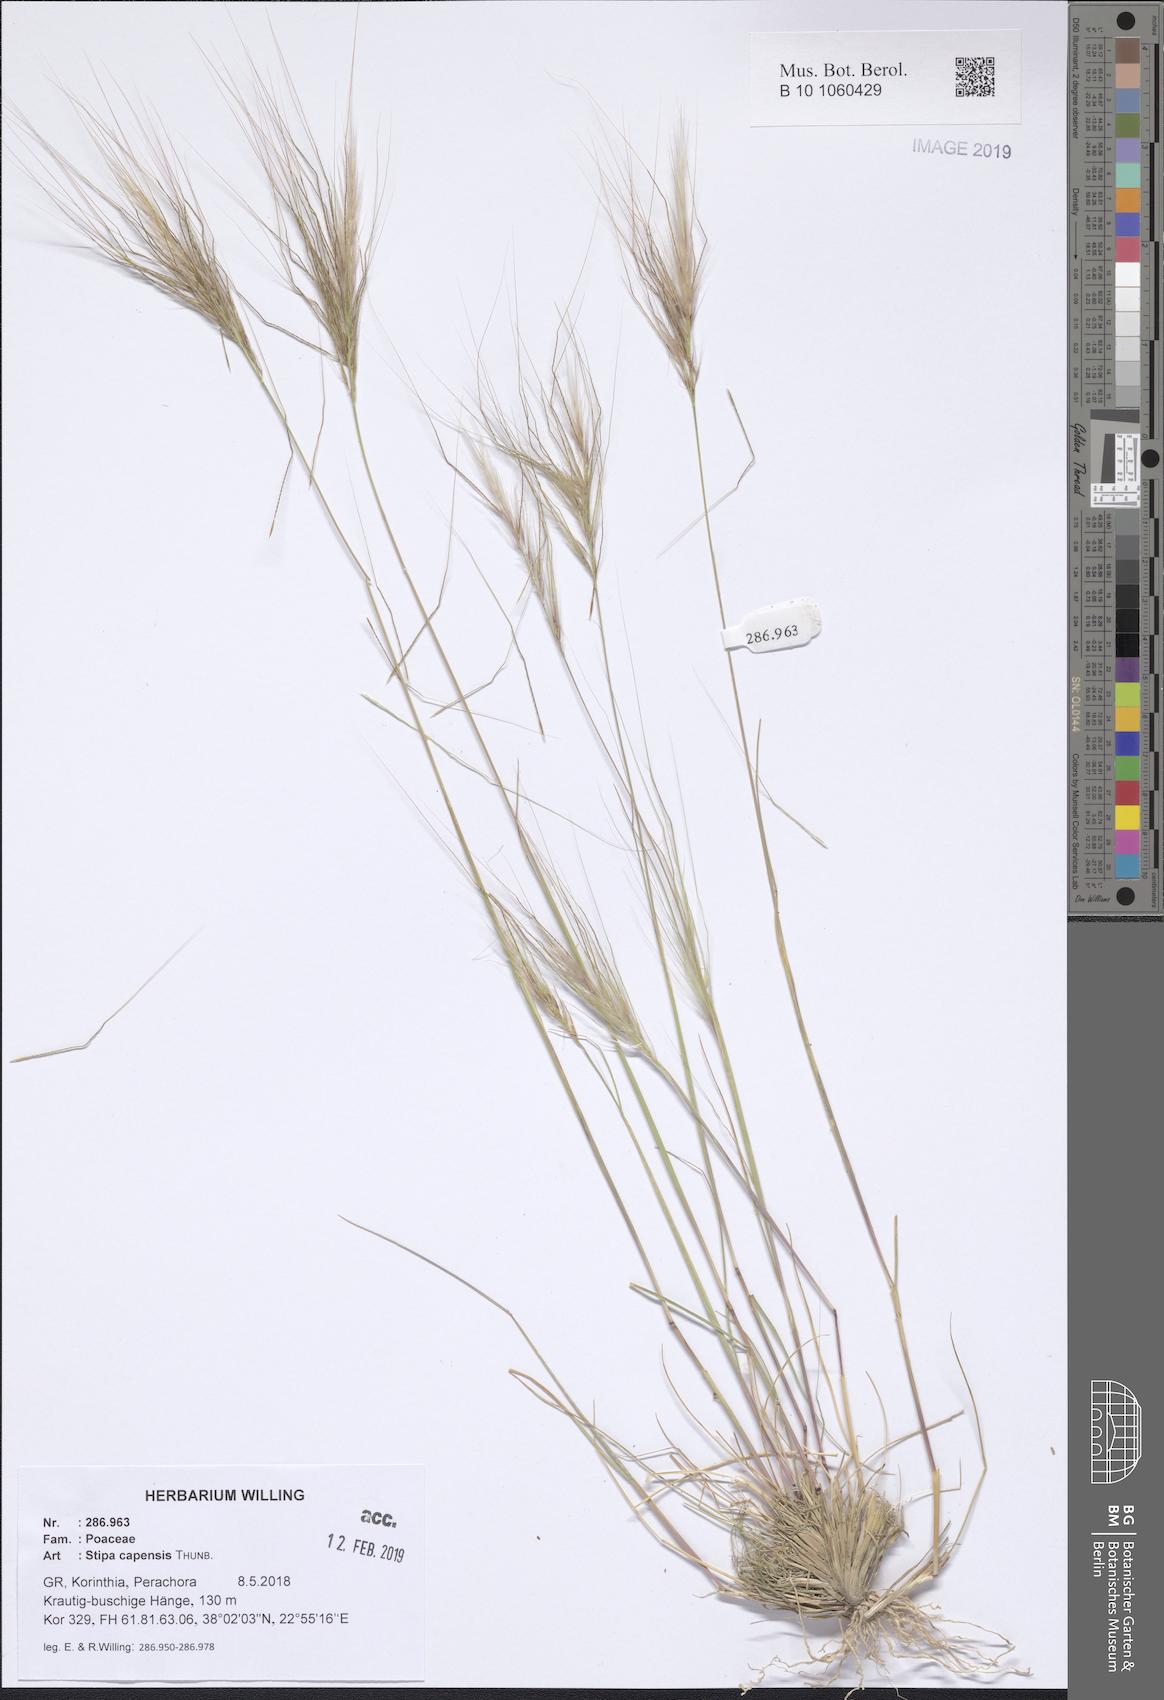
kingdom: Plantae
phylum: Tracheophyta
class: Liliopsida
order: Poales
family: Poaceae
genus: Stipellula
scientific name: Stipellula capensis
